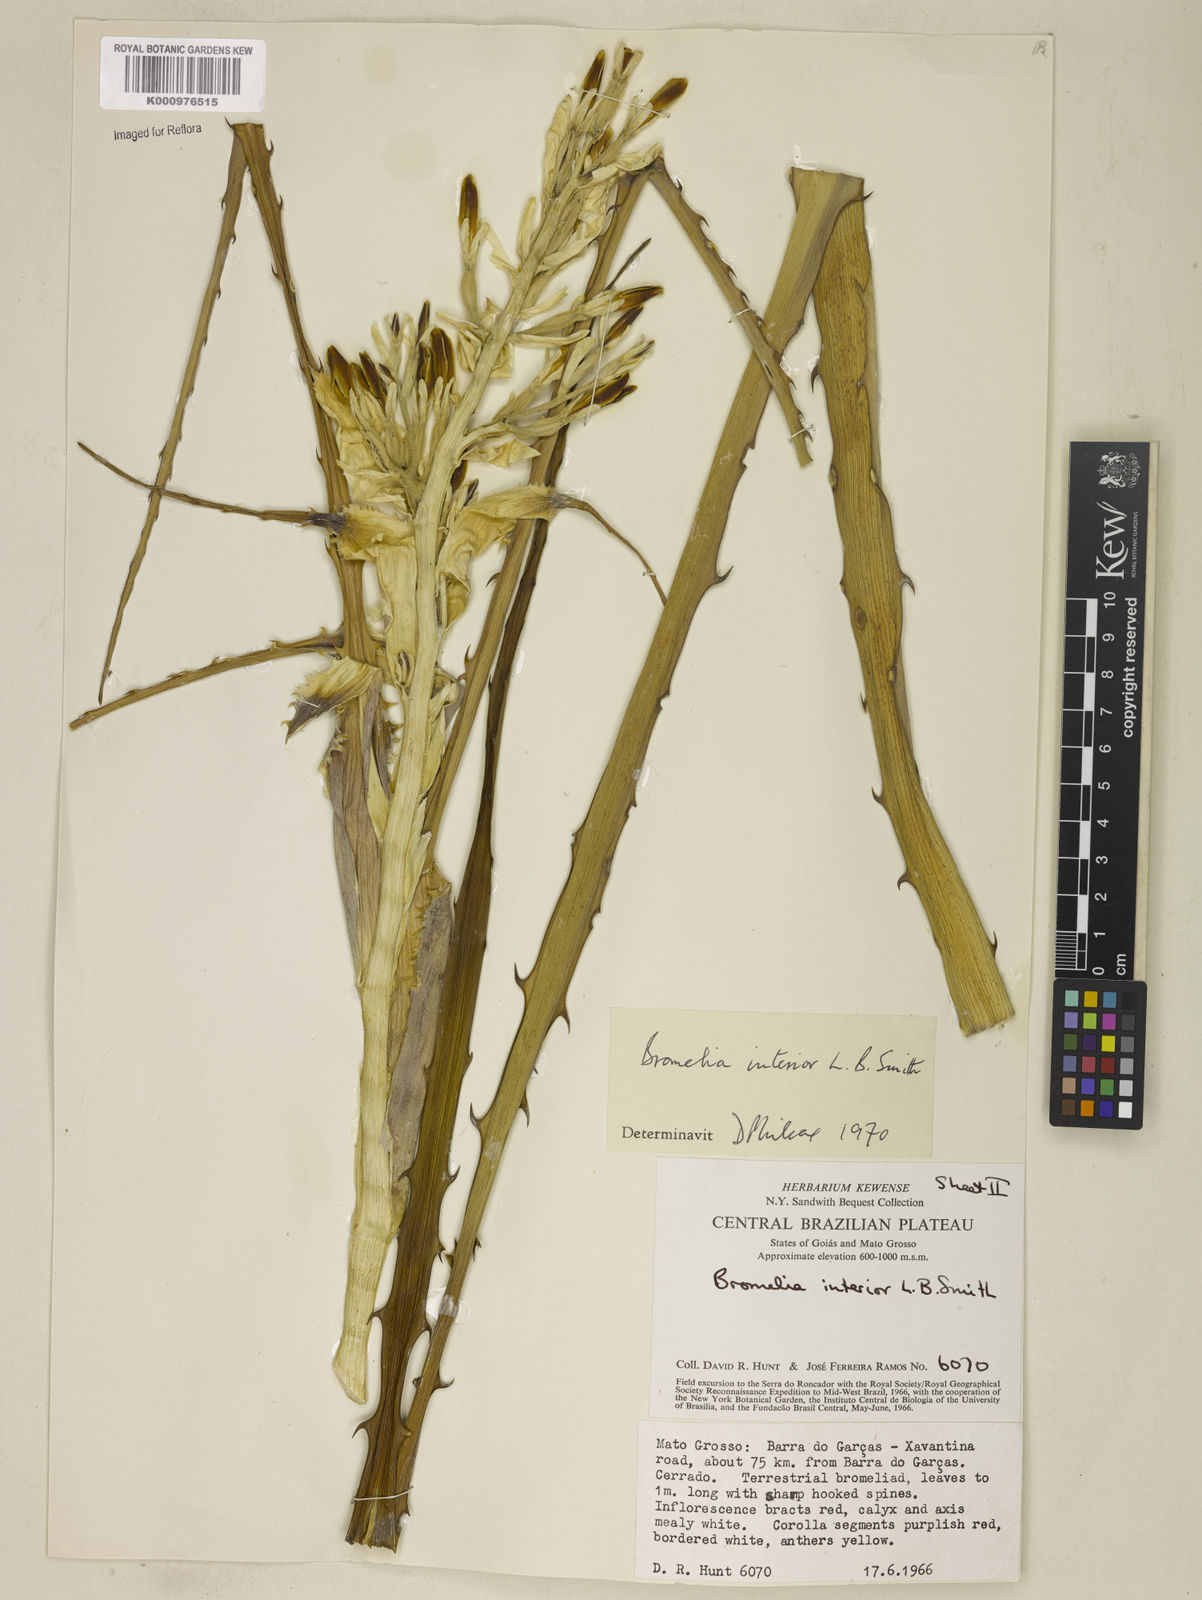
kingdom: Plantae
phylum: Tracheophyta
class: Liliopsida
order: Poales
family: Bromeliaceae
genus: Bromelia
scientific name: Bromelia interior
